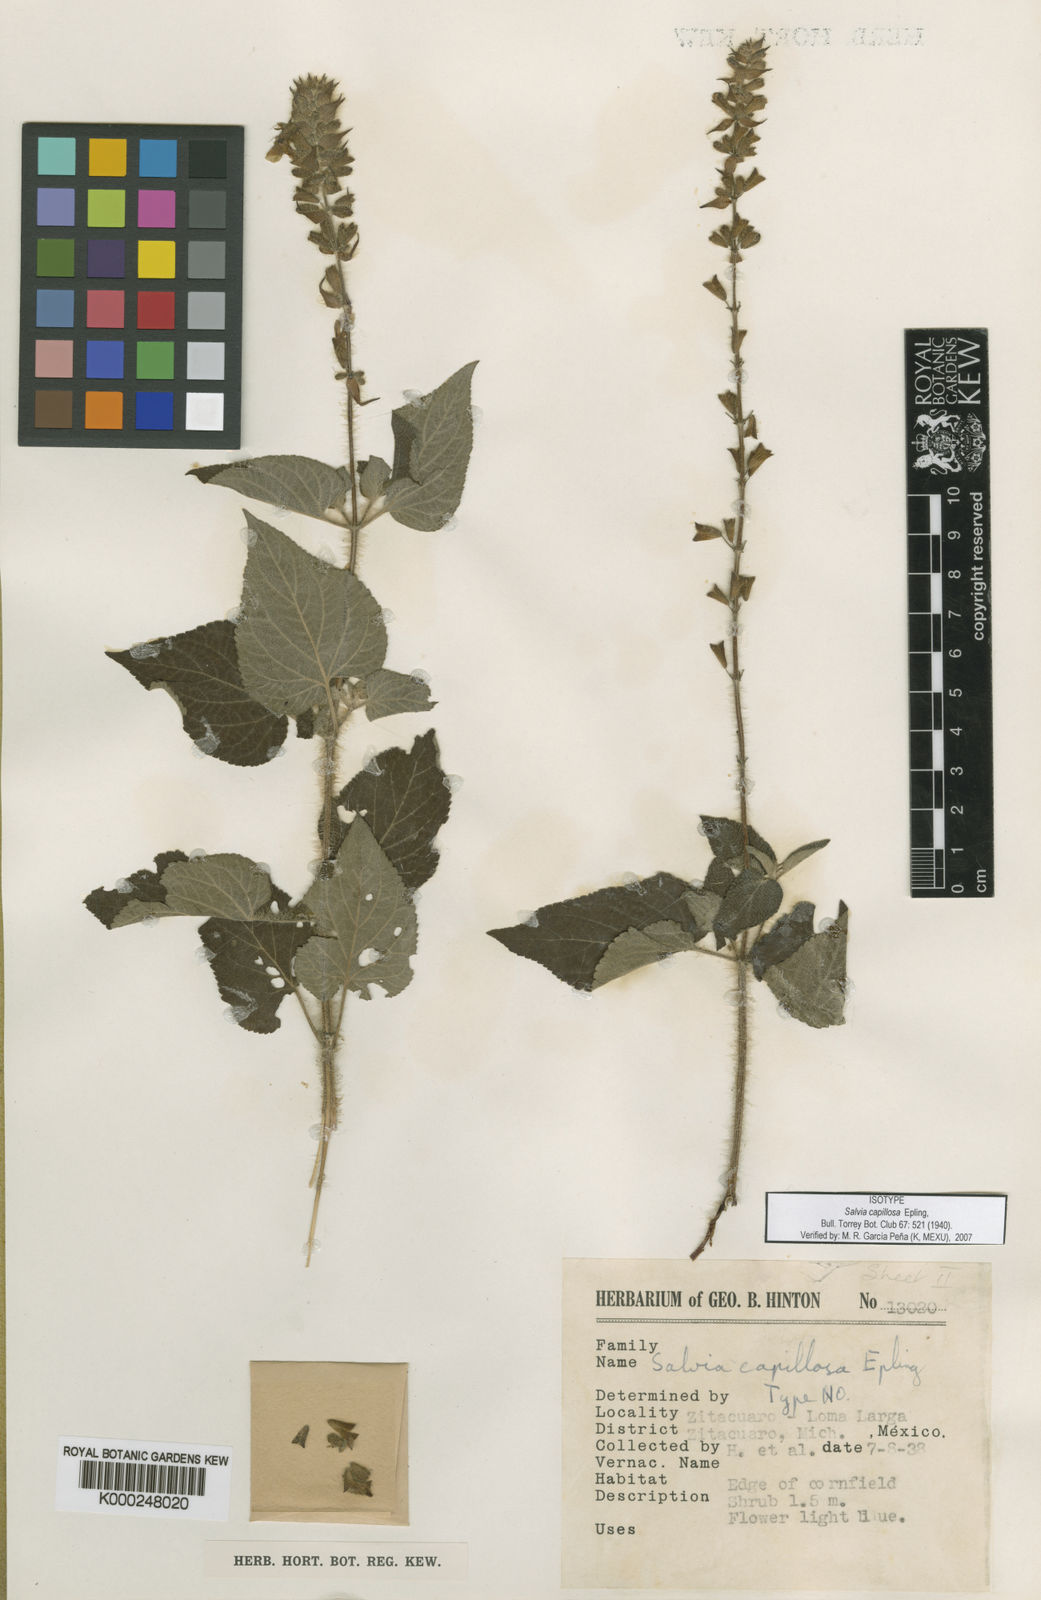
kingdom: Plantae
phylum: Tracheophyta
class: Magnoliopsida
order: Lamiales
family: Lamiaceae
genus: Salvia
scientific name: Salvia circinnata
